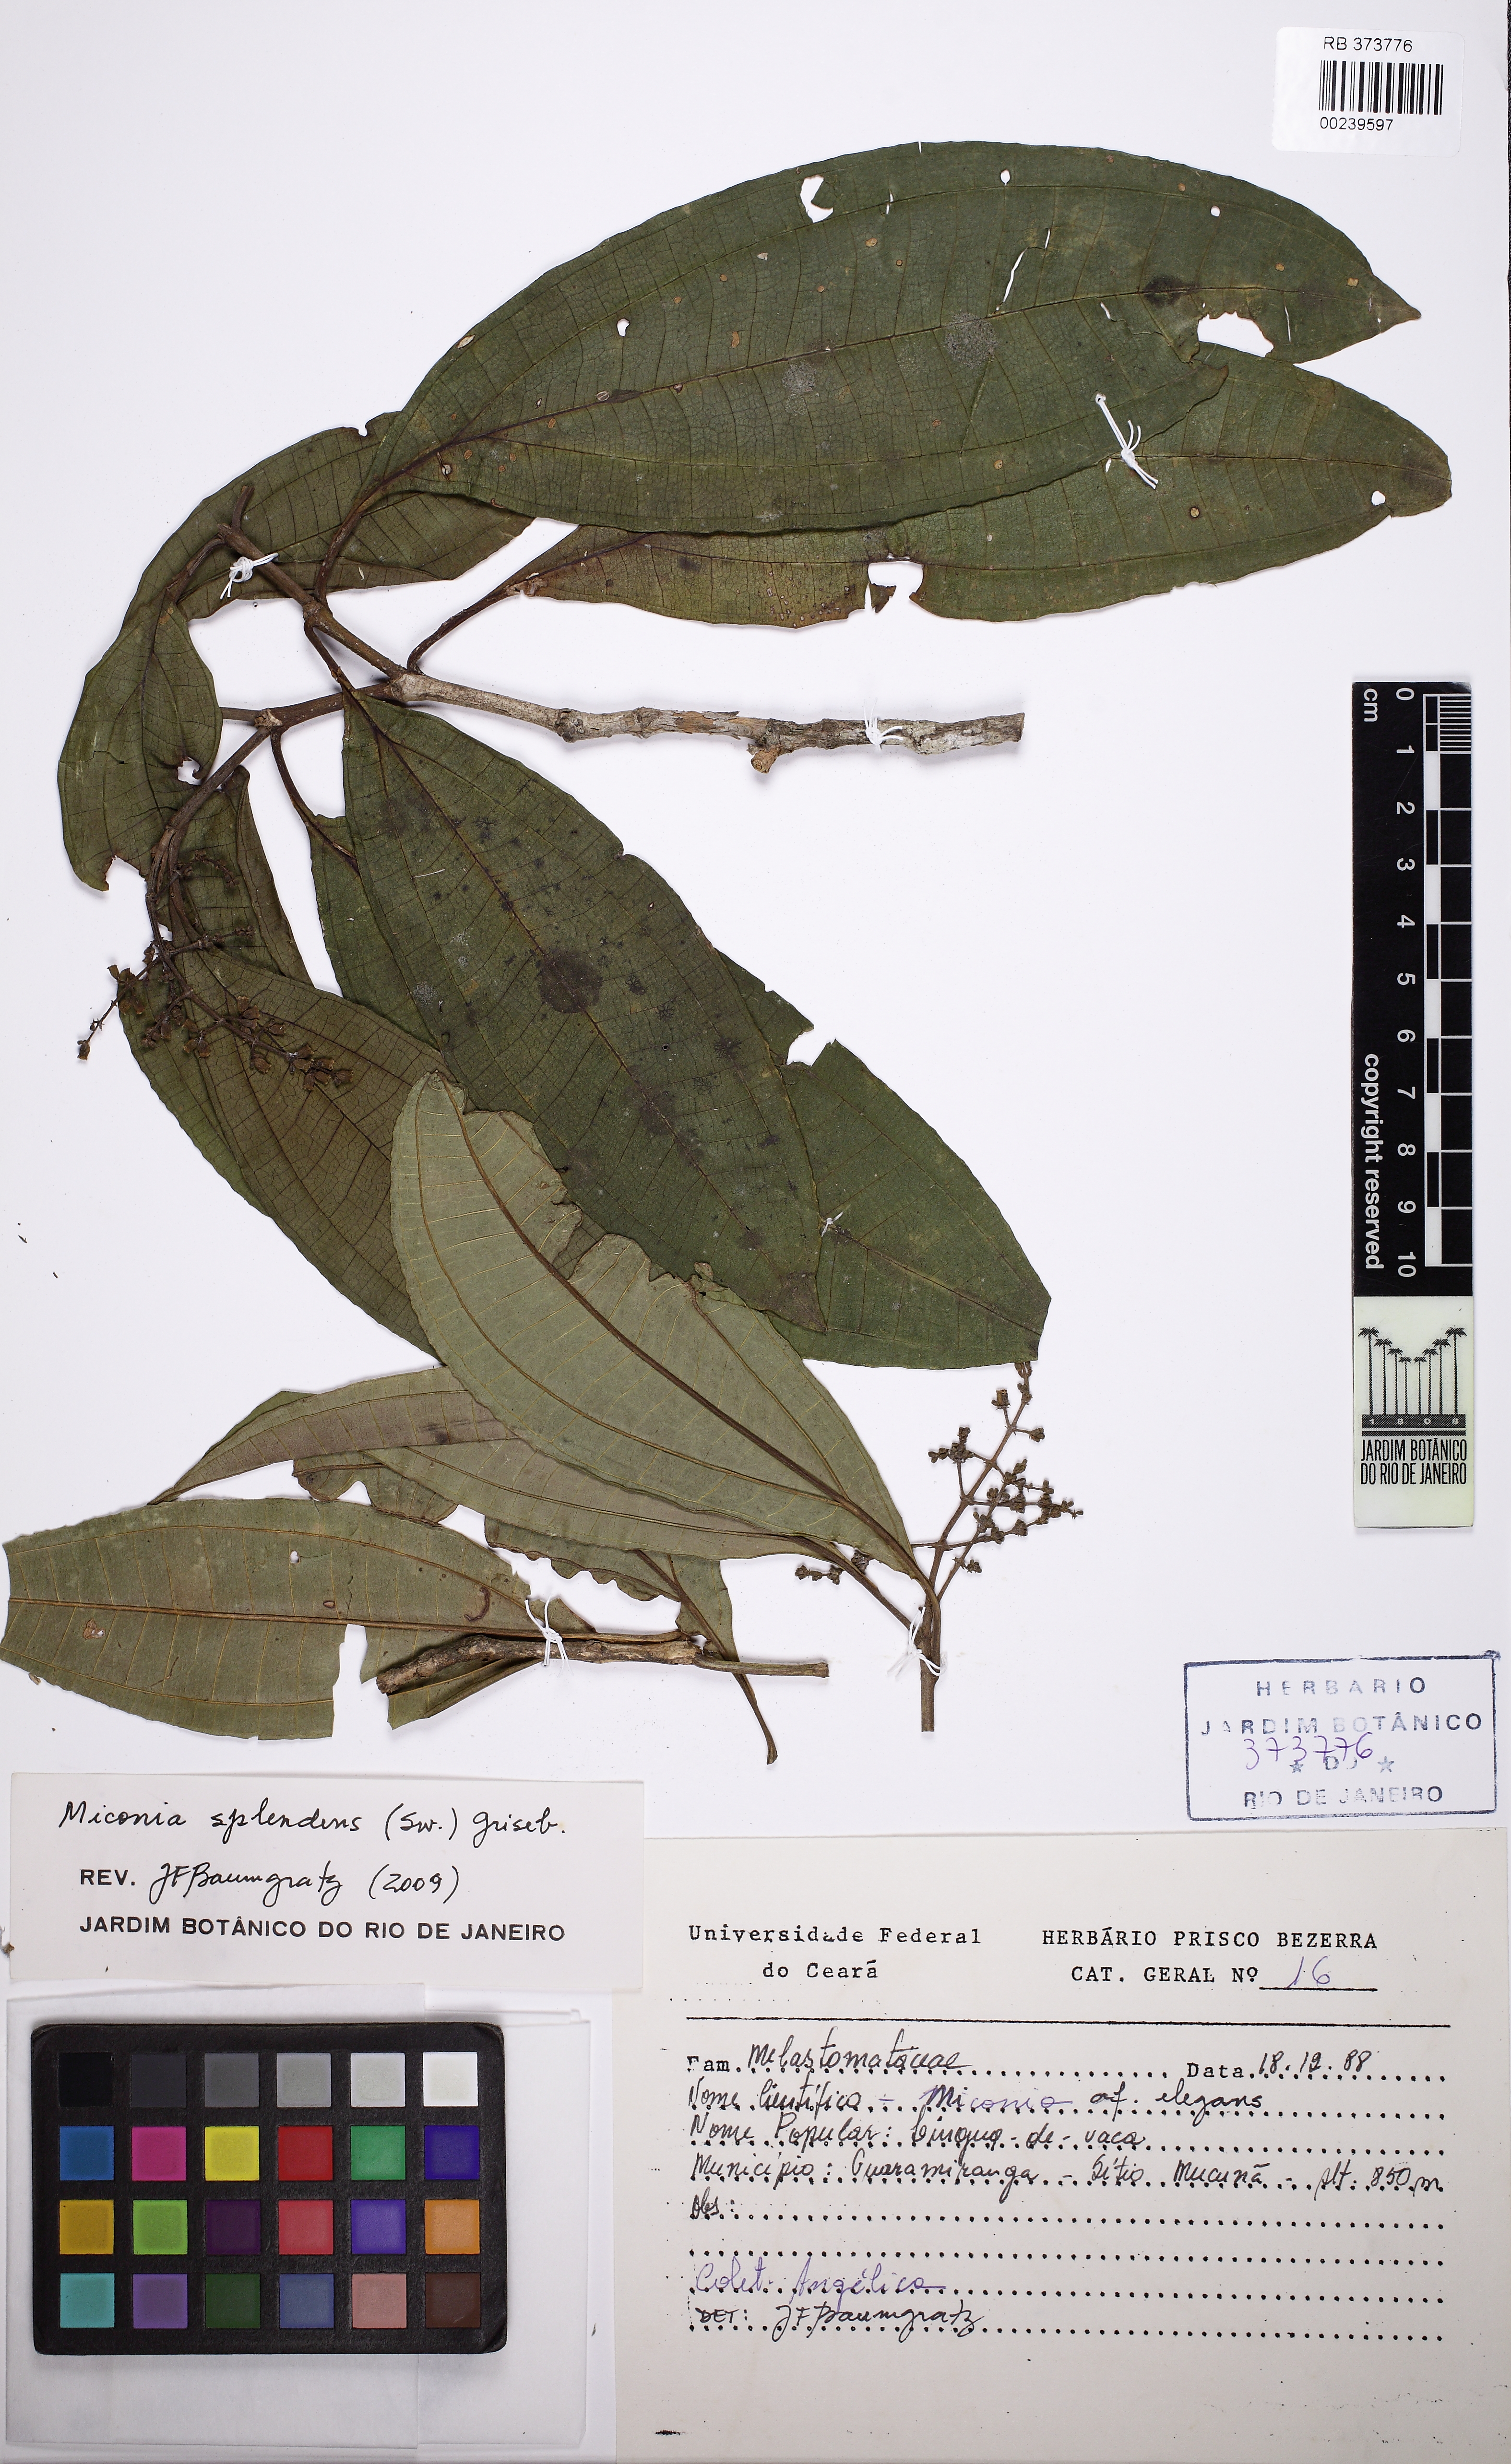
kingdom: Plantae
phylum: Tracheophyta
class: Magnoliopsida
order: Myrtales
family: Melastomataceae
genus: Miconia
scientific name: Miconia
